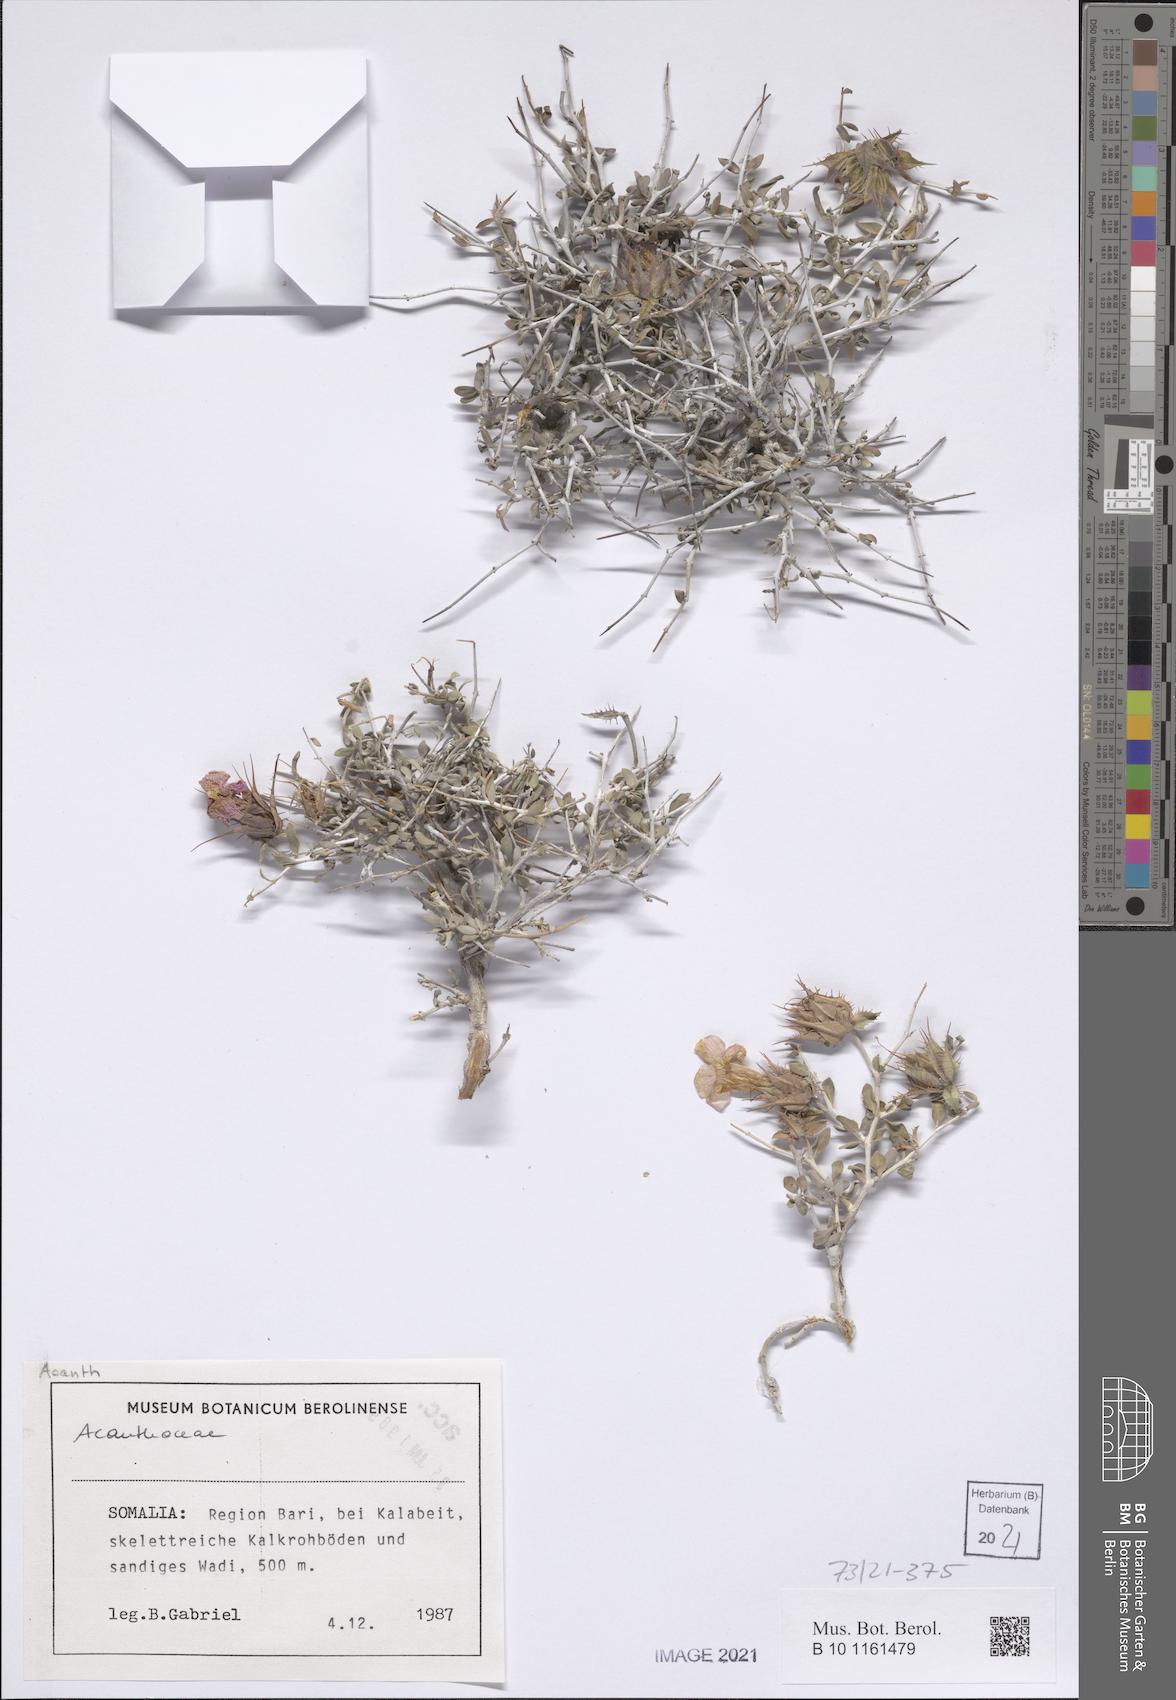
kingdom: Plantae
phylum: Tracheophyta
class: Magnoliopsida
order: Lamiales
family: Acanthaceae
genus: Crabbea
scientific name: Crabbea thymifolia
